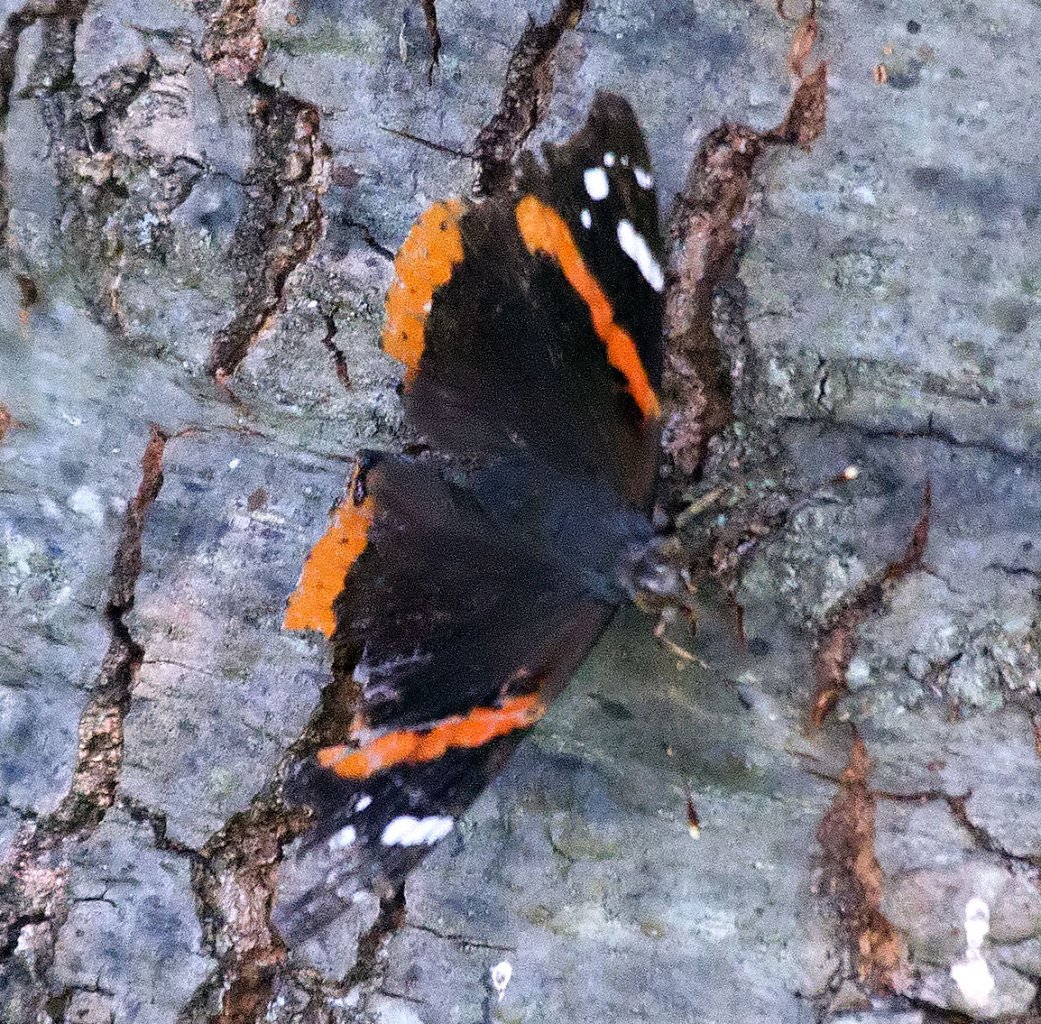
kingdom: Animalia
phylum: Arthropoda
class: Insecta
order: Lepidoptera
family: Nymphalidae
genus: Vanessa
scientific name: Vanessa atalanta
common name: Red Admiral
